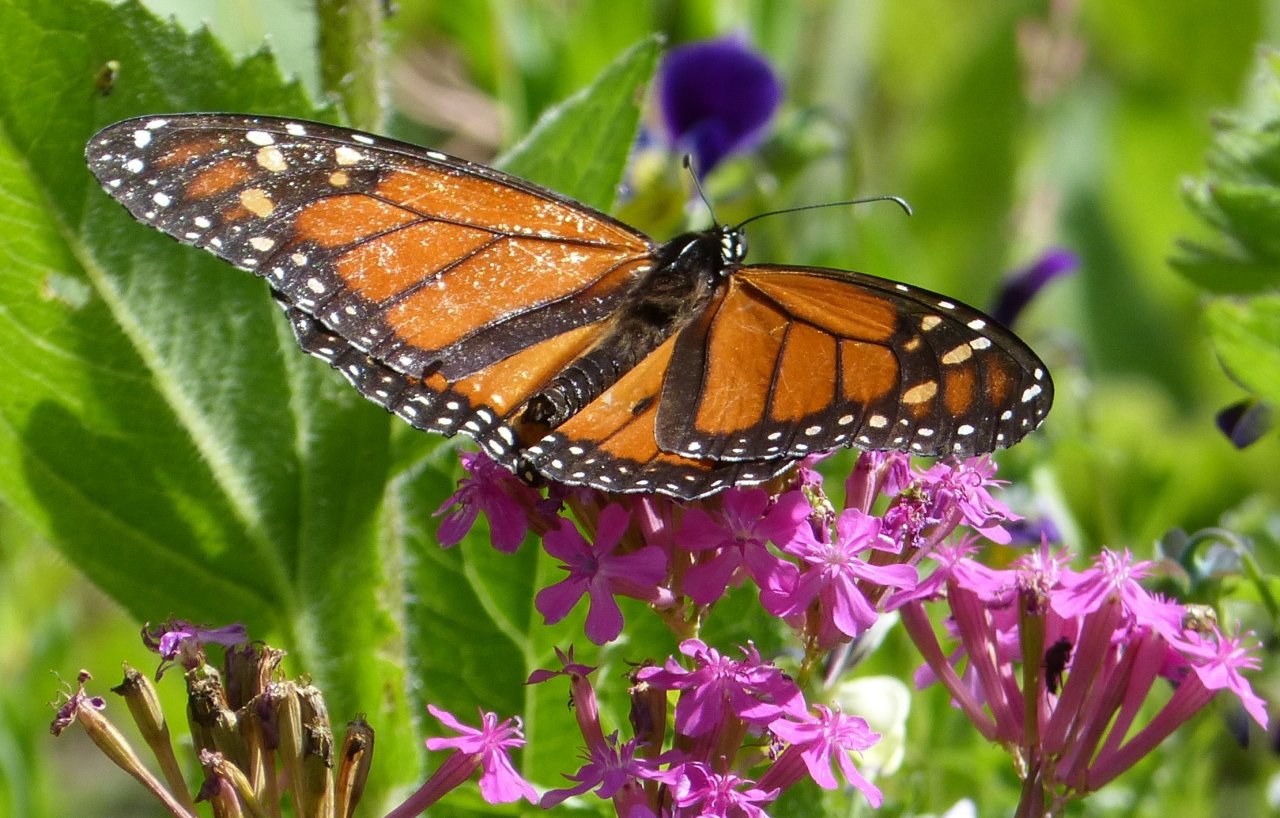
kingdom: Animalia
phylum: Arthropoda
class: Insecta
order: Lepidoptera
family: Nymphalidae
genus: Danaus
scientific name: Danaus plexippus
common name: Monarch
